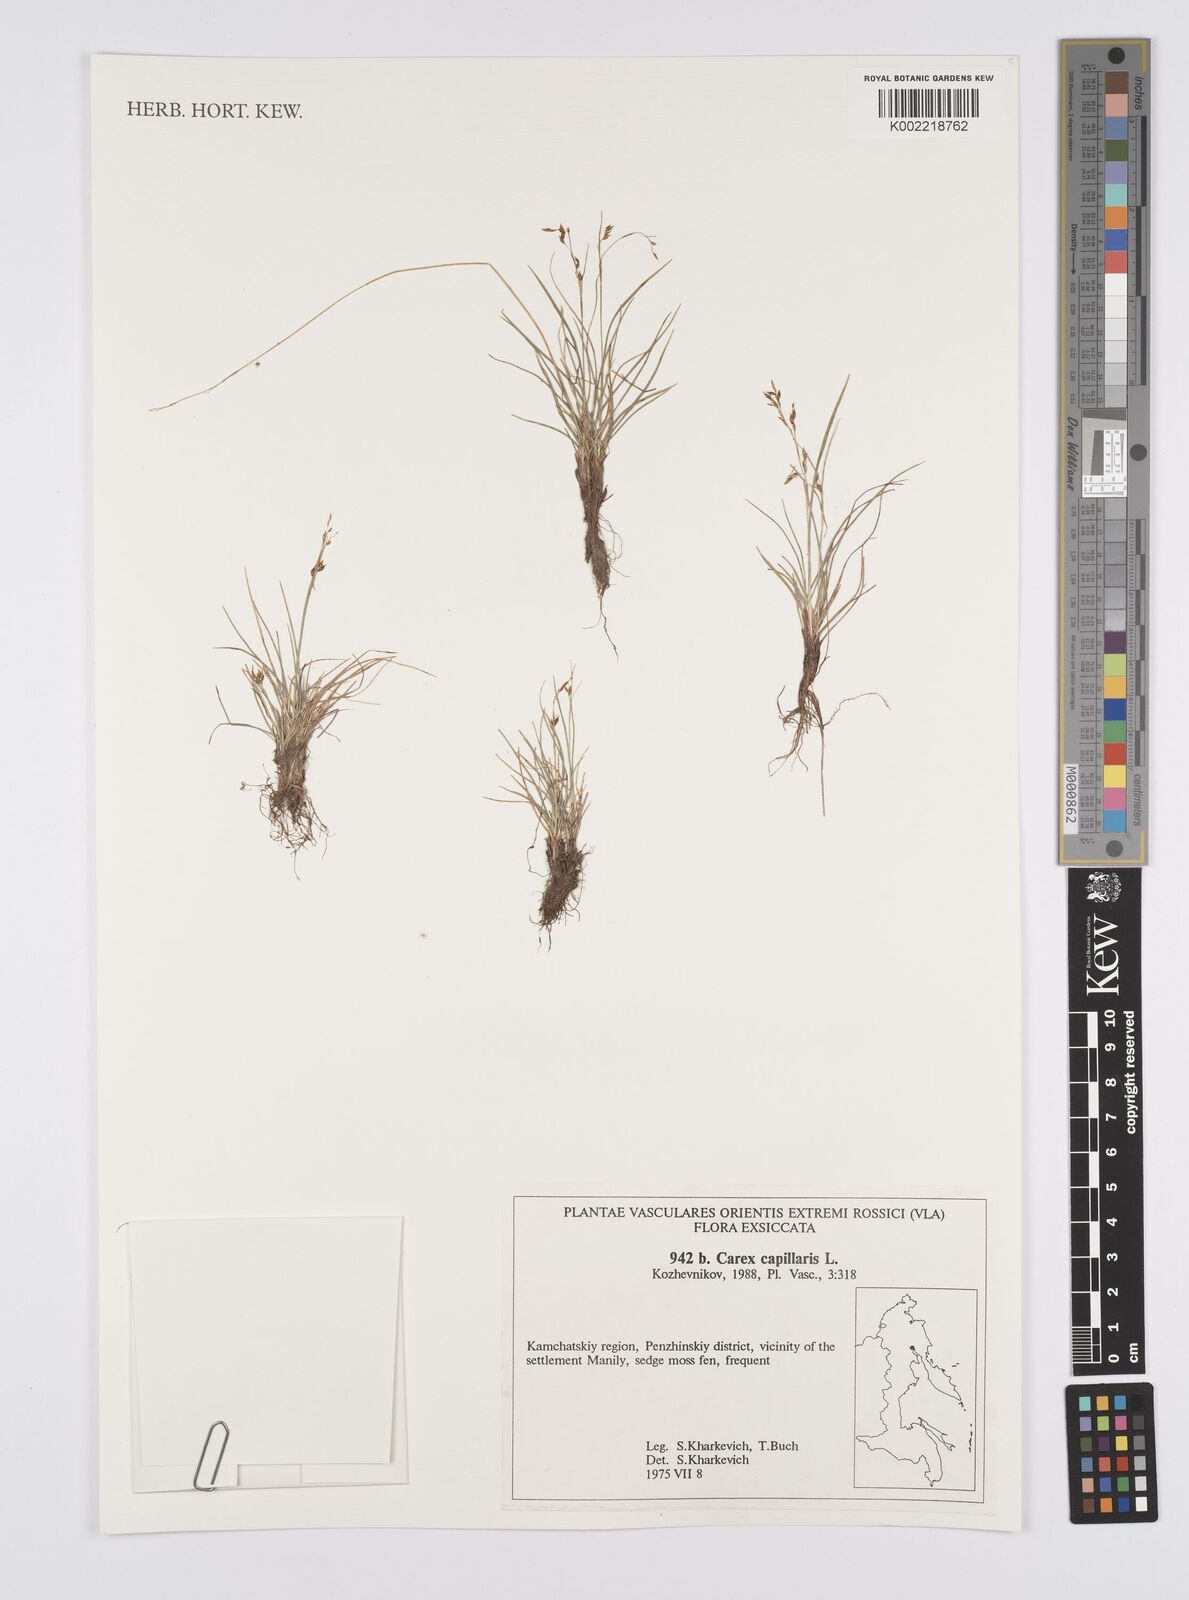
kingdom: Plantae
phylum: Tracheophyta
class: Liliopsida
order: Poales
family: Cyperaceae
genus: Carex
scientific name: Carex capillaris
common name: Hair sedge
